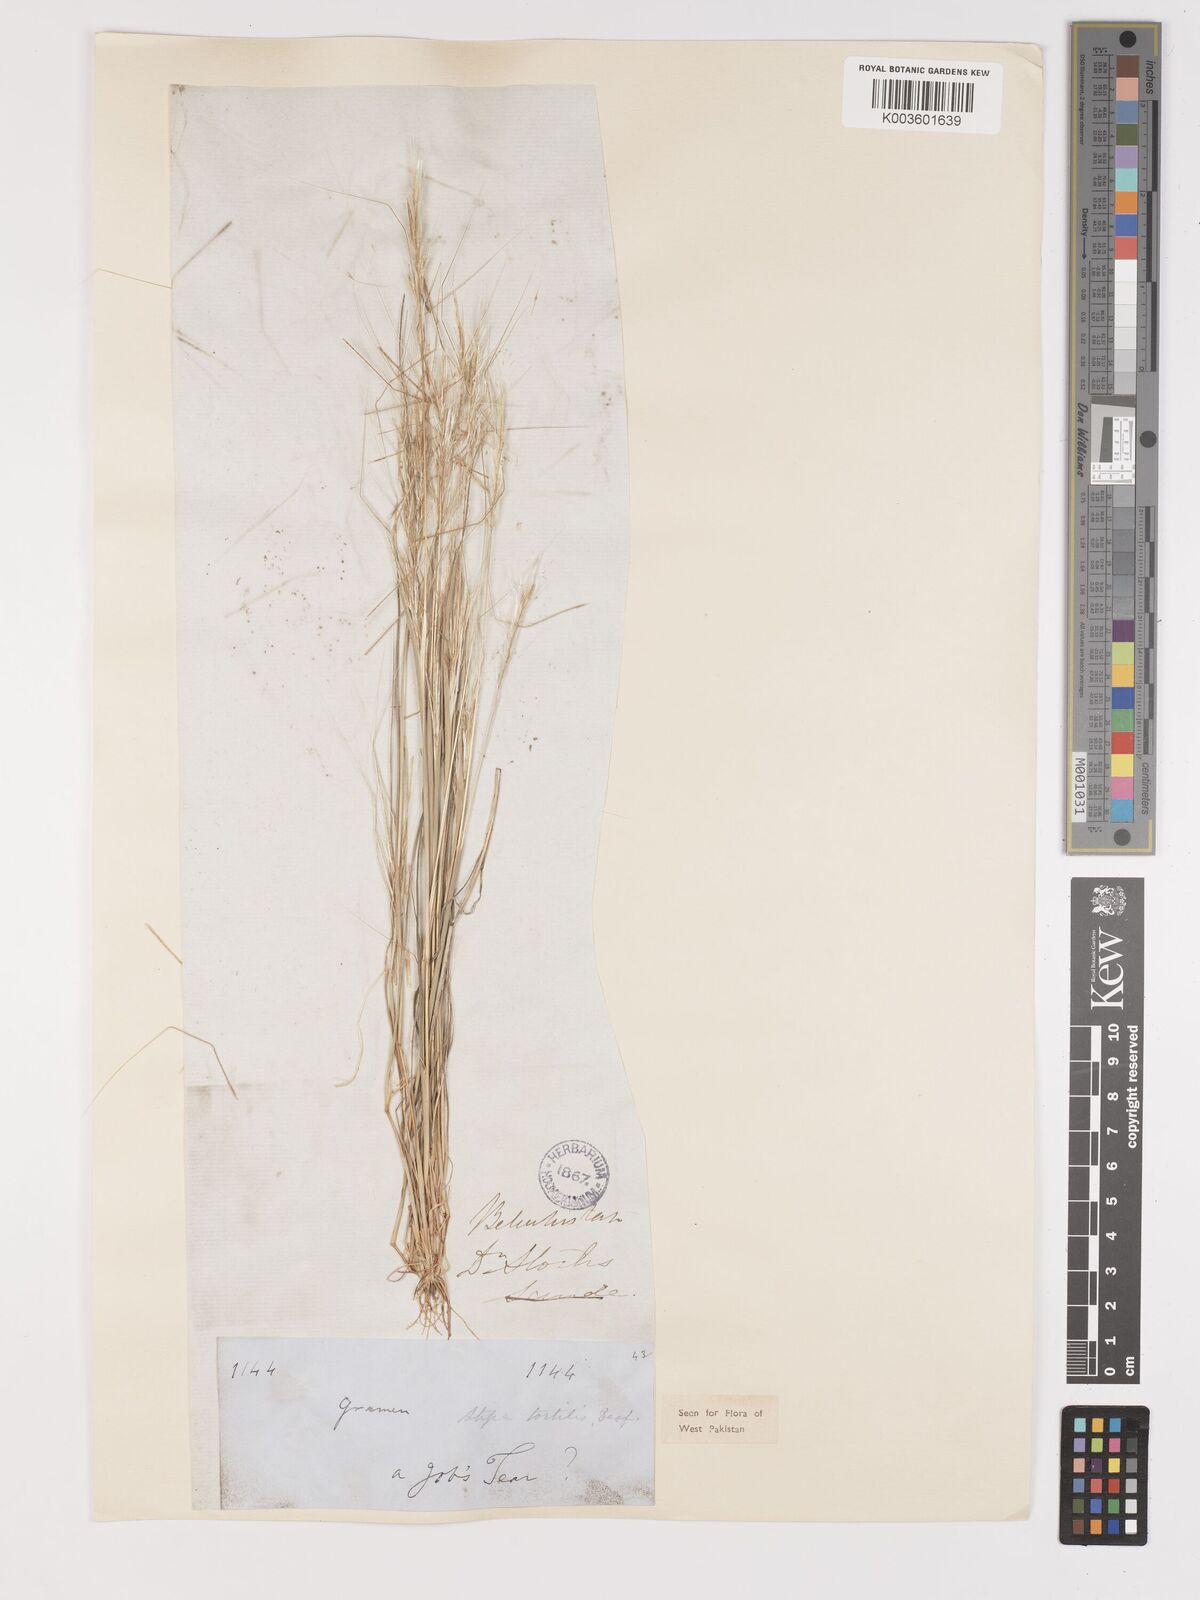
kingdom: Plantae
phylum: Tracheophyta
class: Liliopsida
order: Poales
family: Poaceae
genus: Stipellula
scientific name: Stipellula capensis
